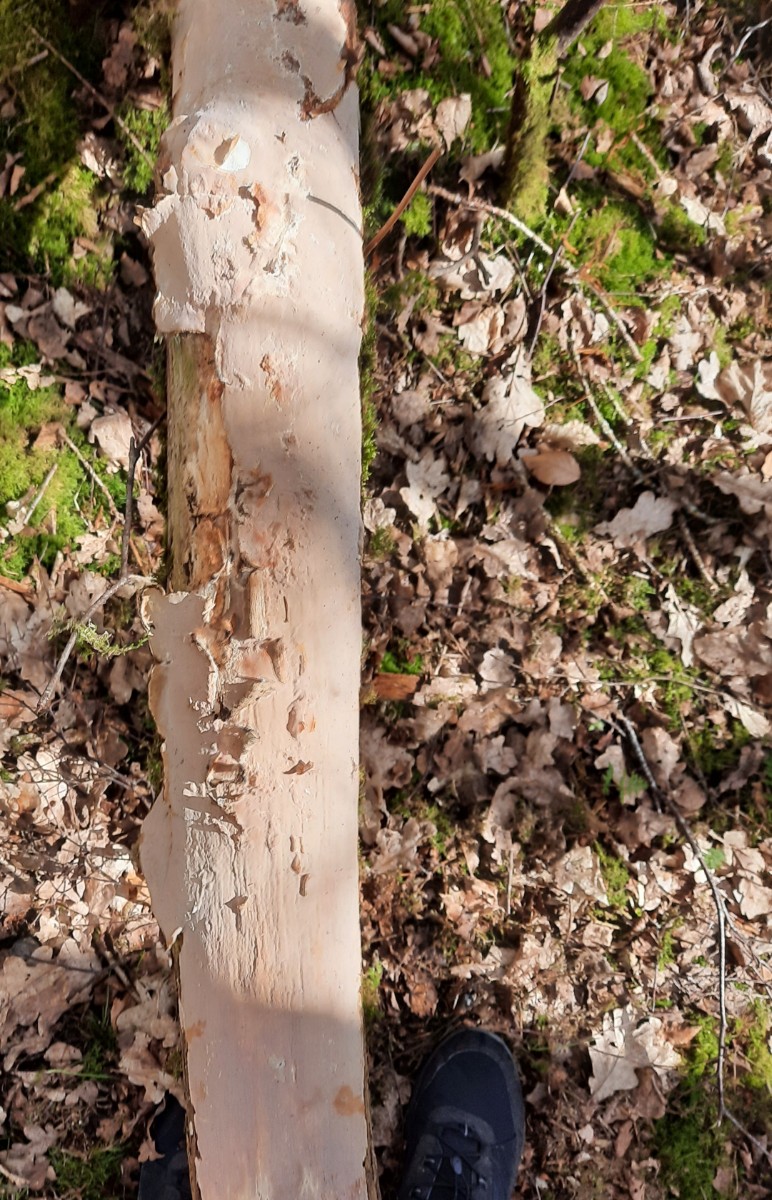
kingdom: Fungi
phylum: Basidiomycota
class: Agaricomycetes
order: Russulales
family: Peniophoraceae
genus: Scytinostroma
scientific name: Scytinostroma hemidichophyticum
